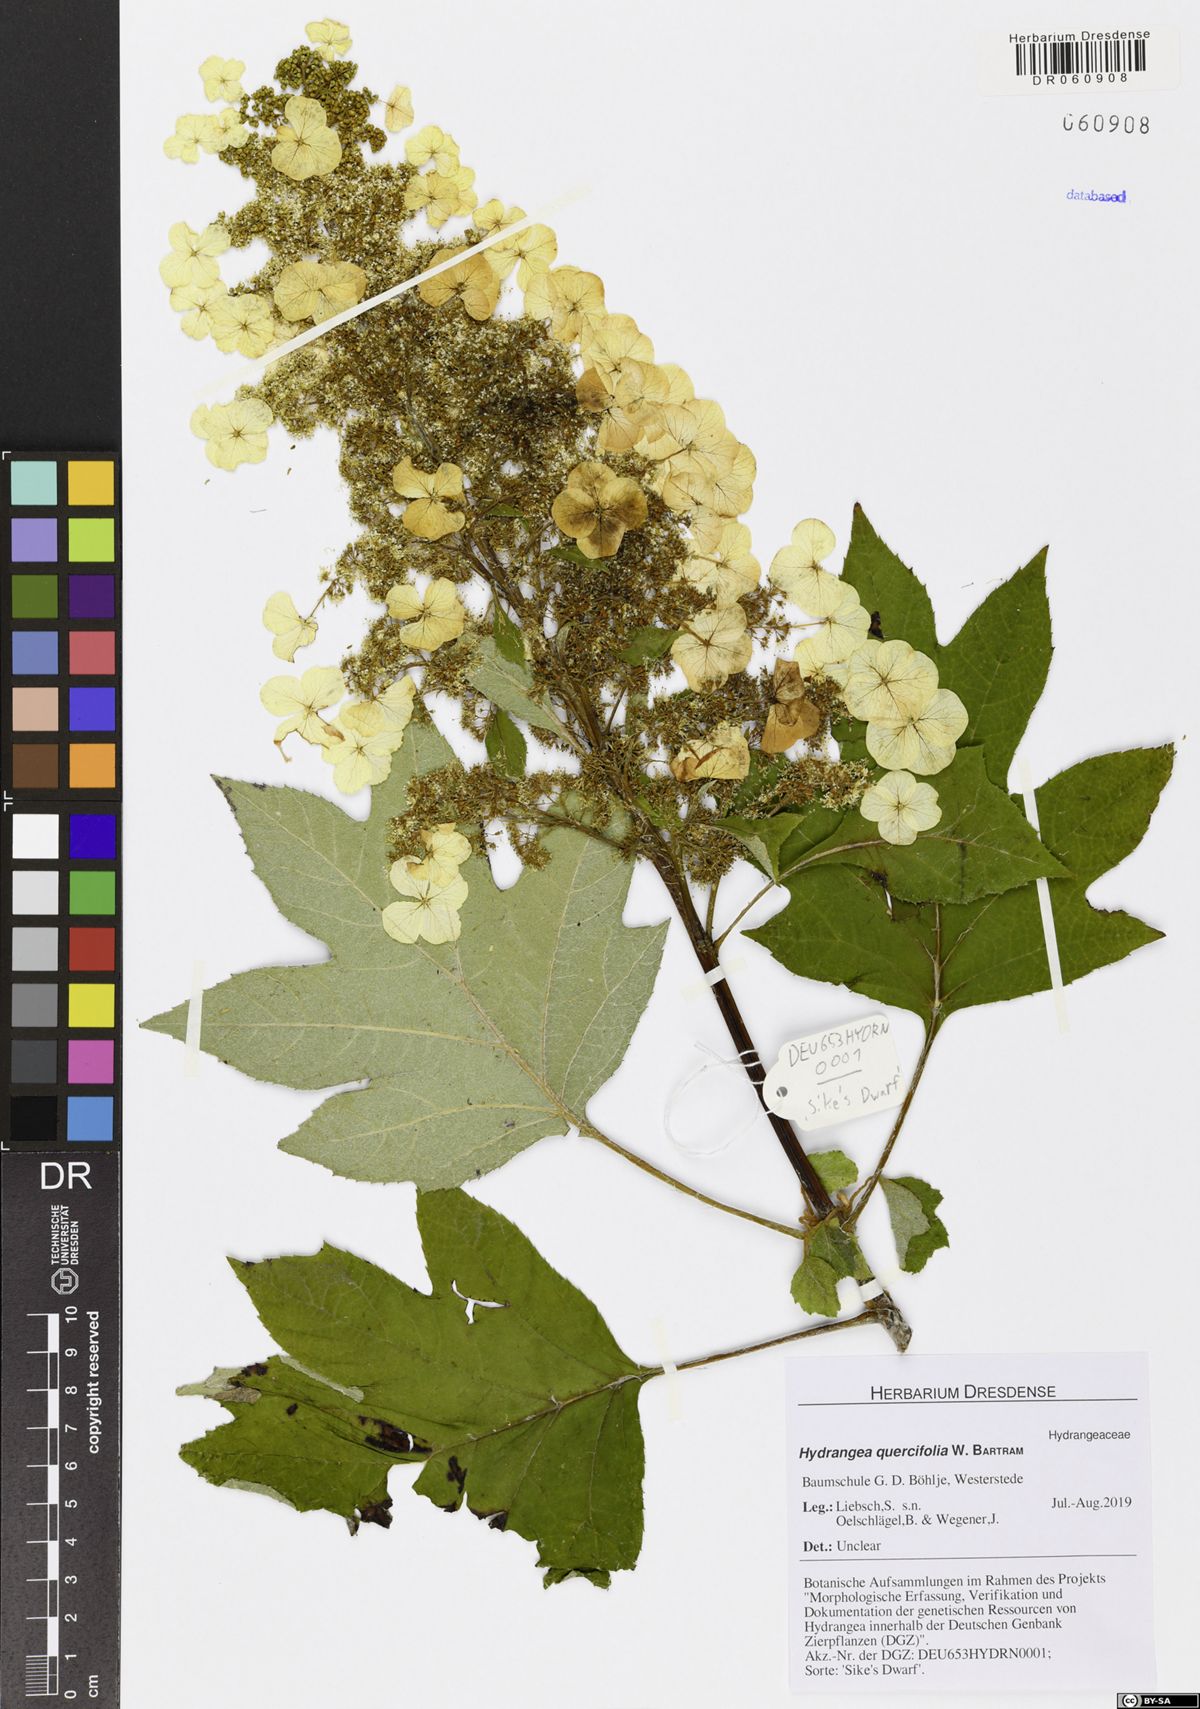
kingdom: Plantae
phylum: Tracheophyta
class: Magnoliopsida
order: Cornales
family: Hydrangeaceae
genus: Hydrangea
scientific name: Hydrangea quercifolia
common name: Oak-leaf hydrangea
